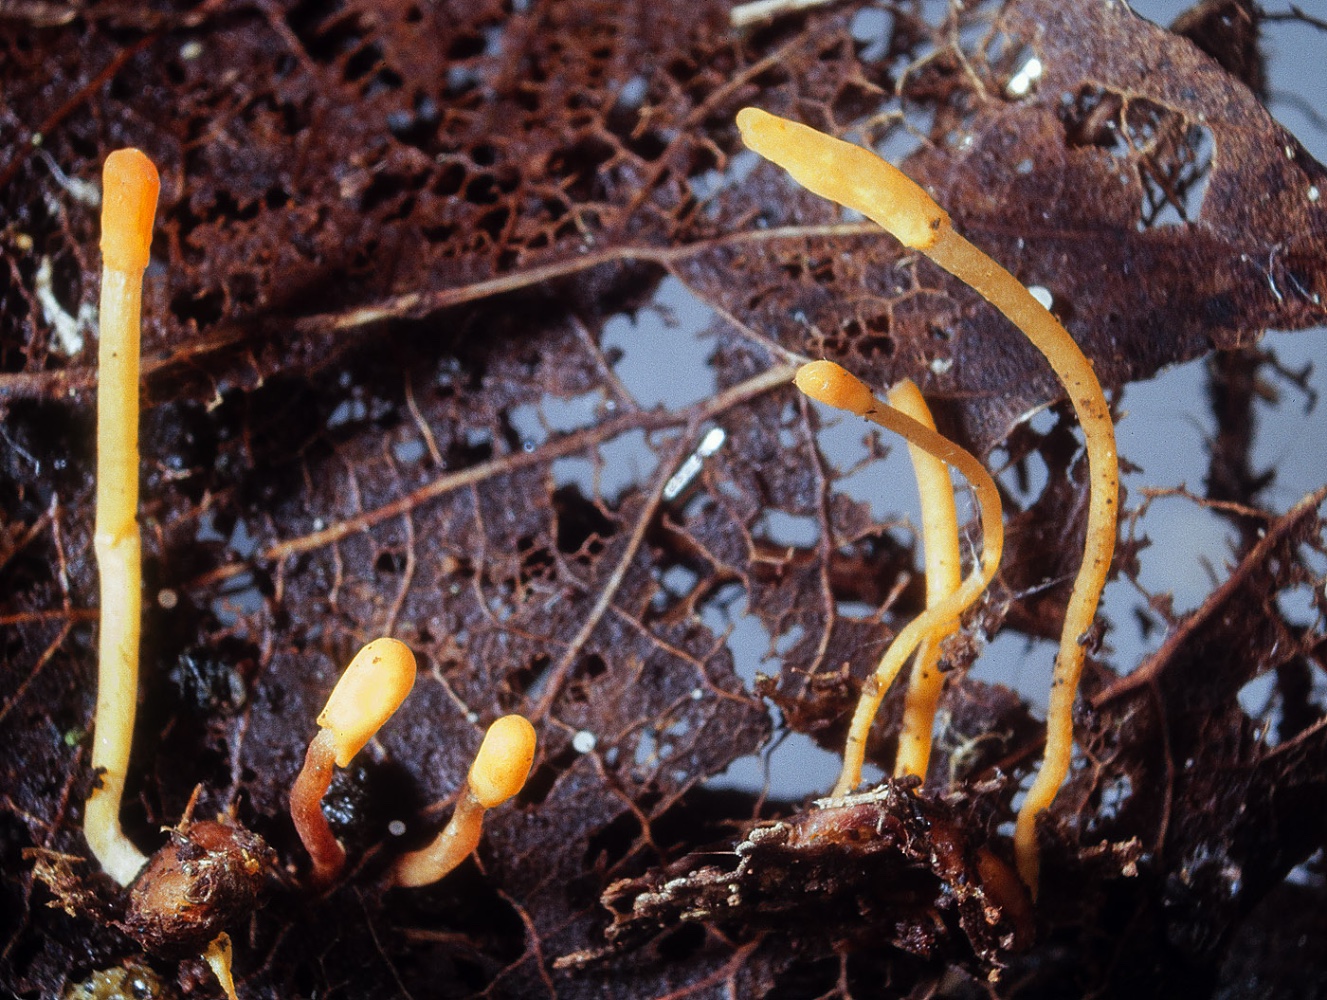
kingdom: Fungi
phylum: Ascomycota
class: Leotiomycetes
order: Helotiales
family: Helotiaceae
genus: Episclerotium
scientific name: Episclerotium sclerotipus
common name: gul sækhue
